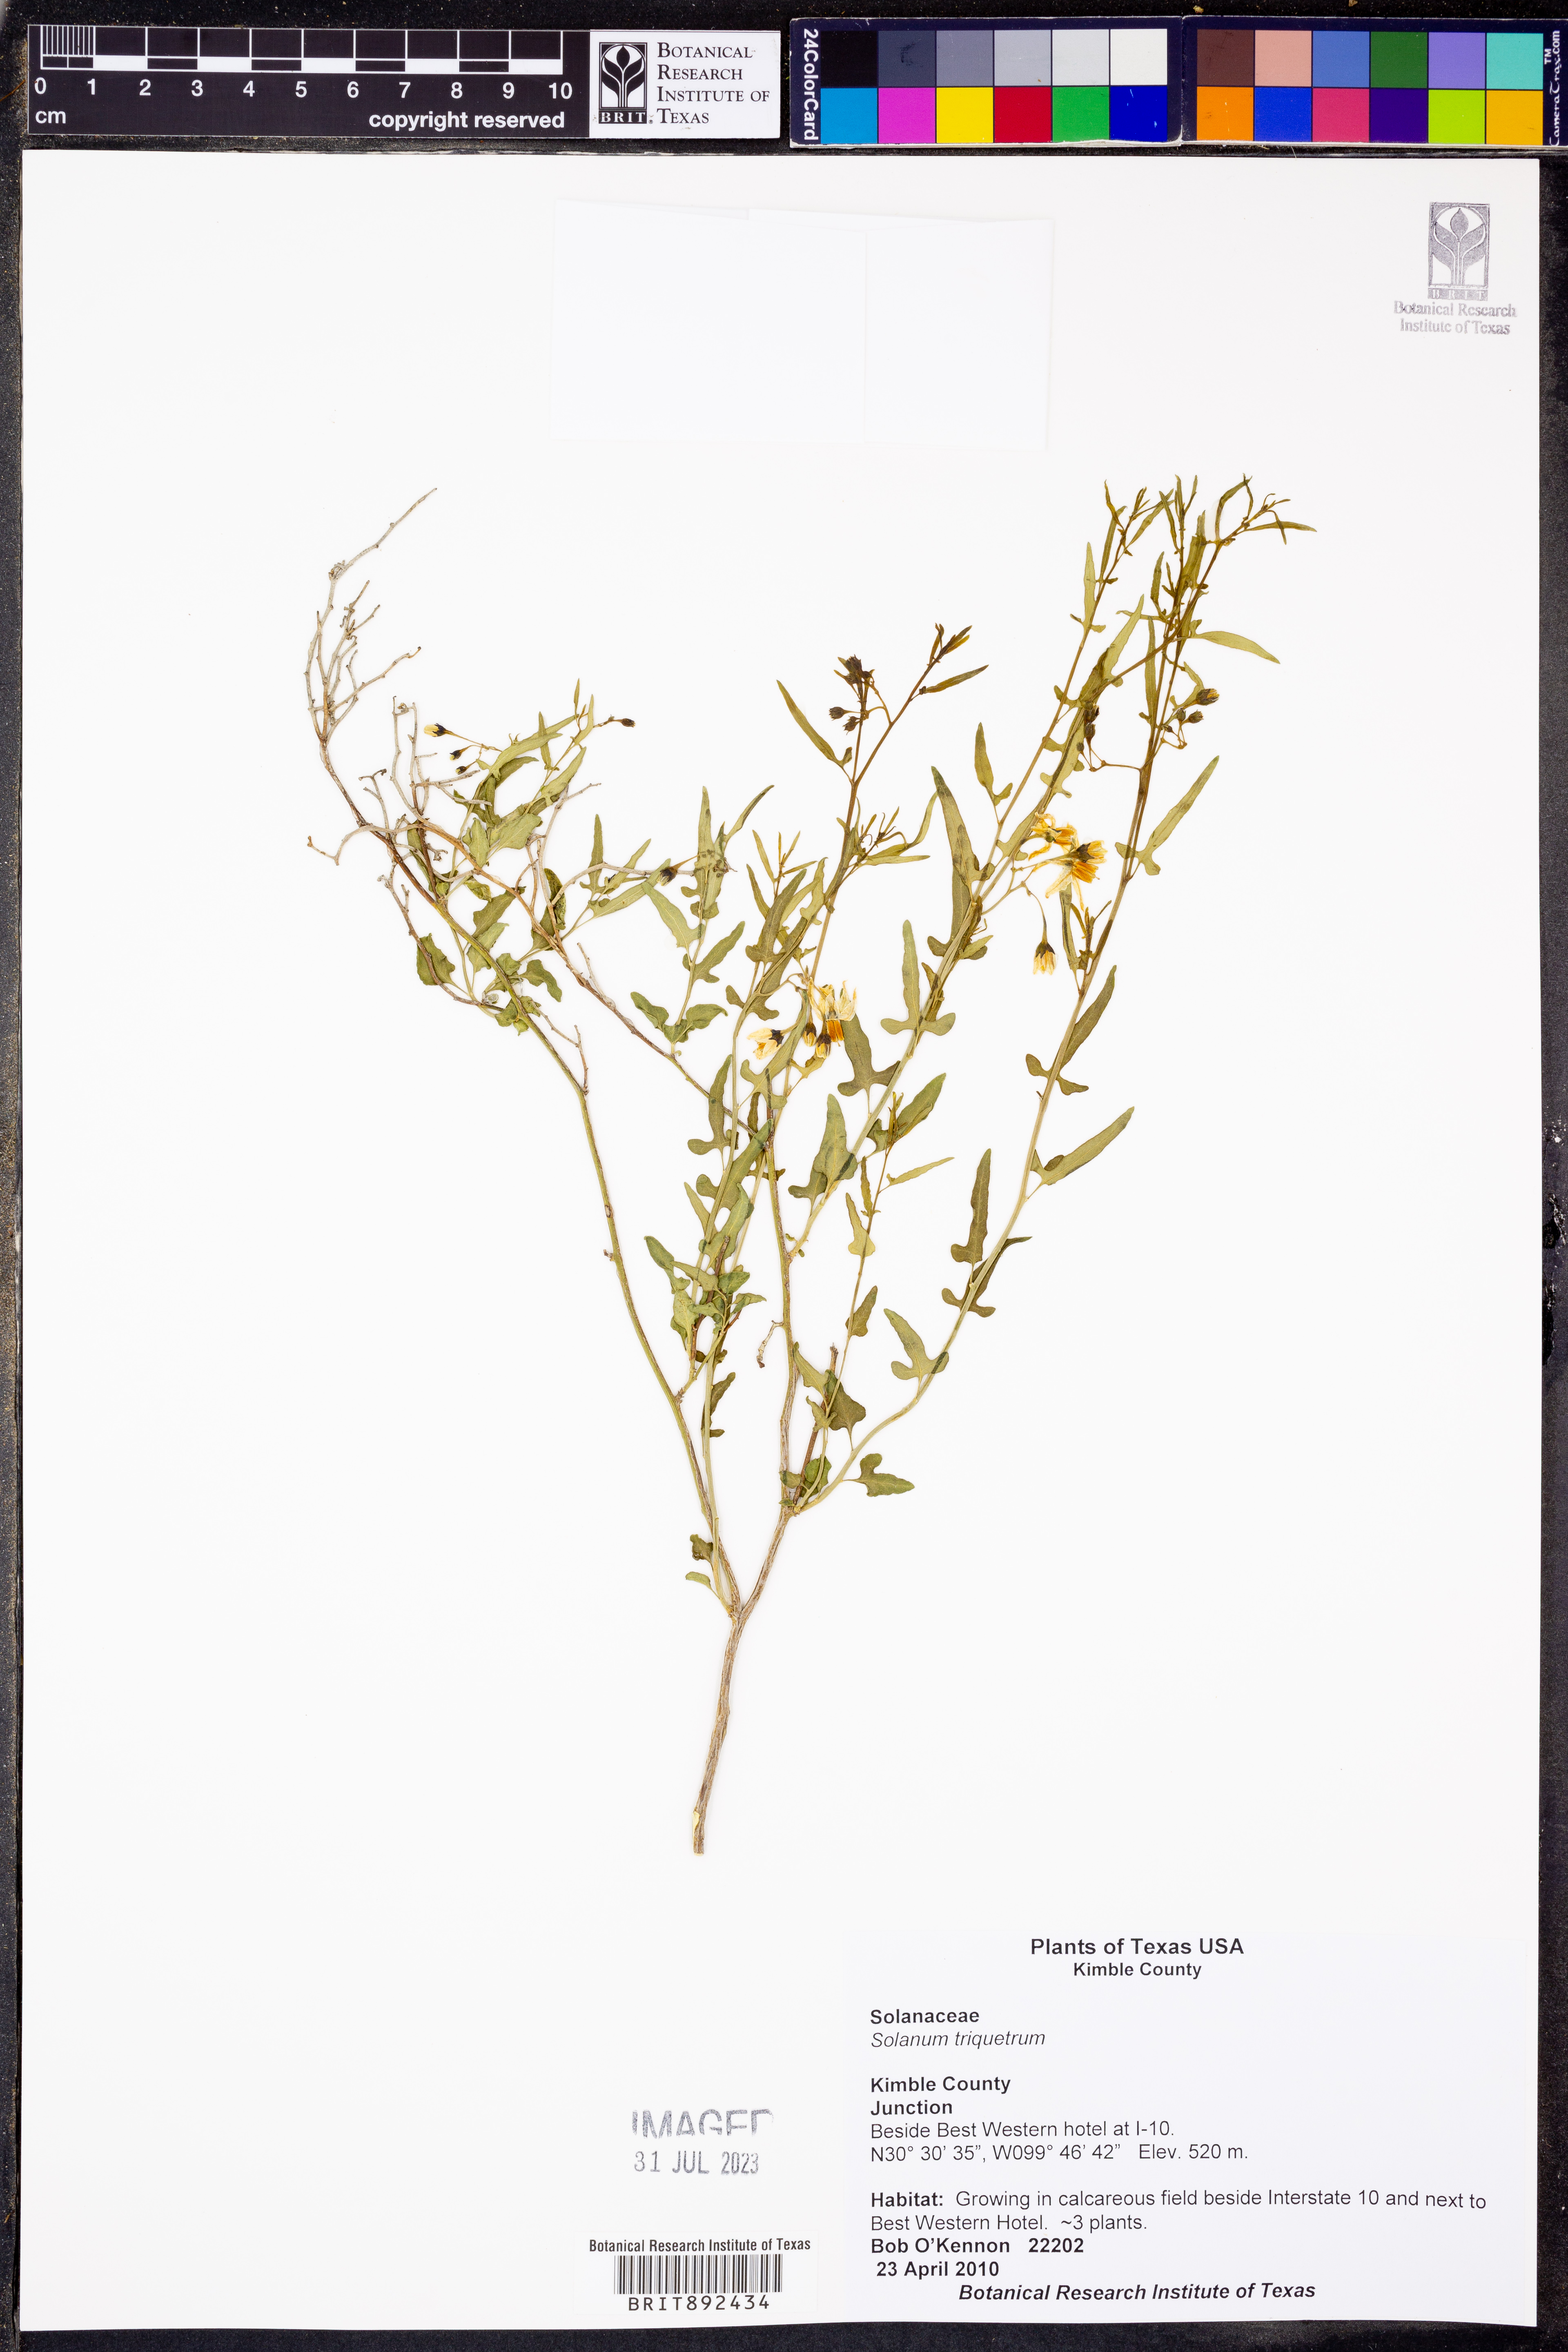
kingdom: Plantae
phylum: Tracheophyta
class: Magnoliopsida
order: Solanales
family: Solanaceae
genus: Solanum
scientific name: Solanum triquetrum
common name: Texas nightshade
